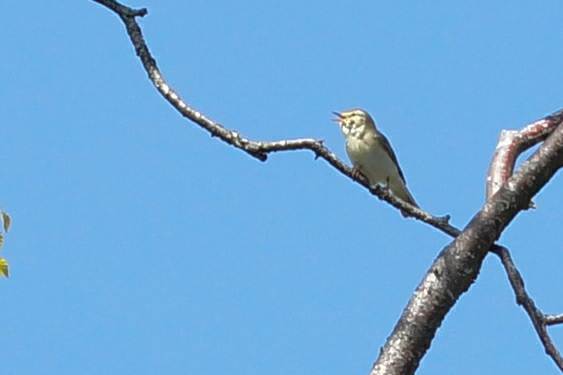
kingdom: Animalia
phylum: Chordata
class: Aves
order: Passeriformes
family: Phylloscopidae
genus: Phylloscopus
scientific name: Phylloscopus trochilus
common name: Løvsanger
